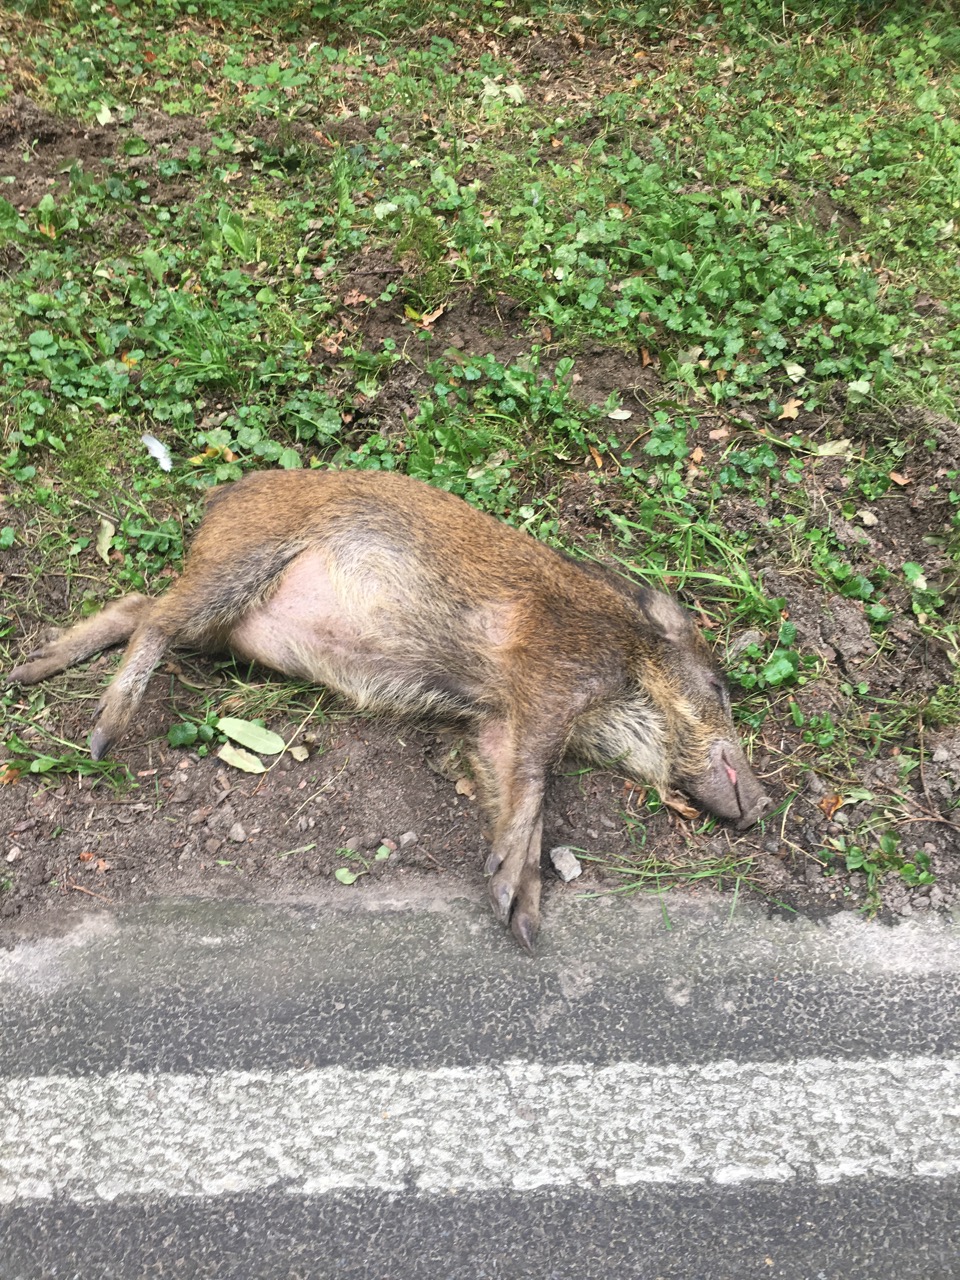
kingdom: Animalia
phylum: Chordata
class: Mammalia
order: Artiodactyla
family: Suidae
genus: Sus
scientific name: Sus scrofa
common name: Wild boar
